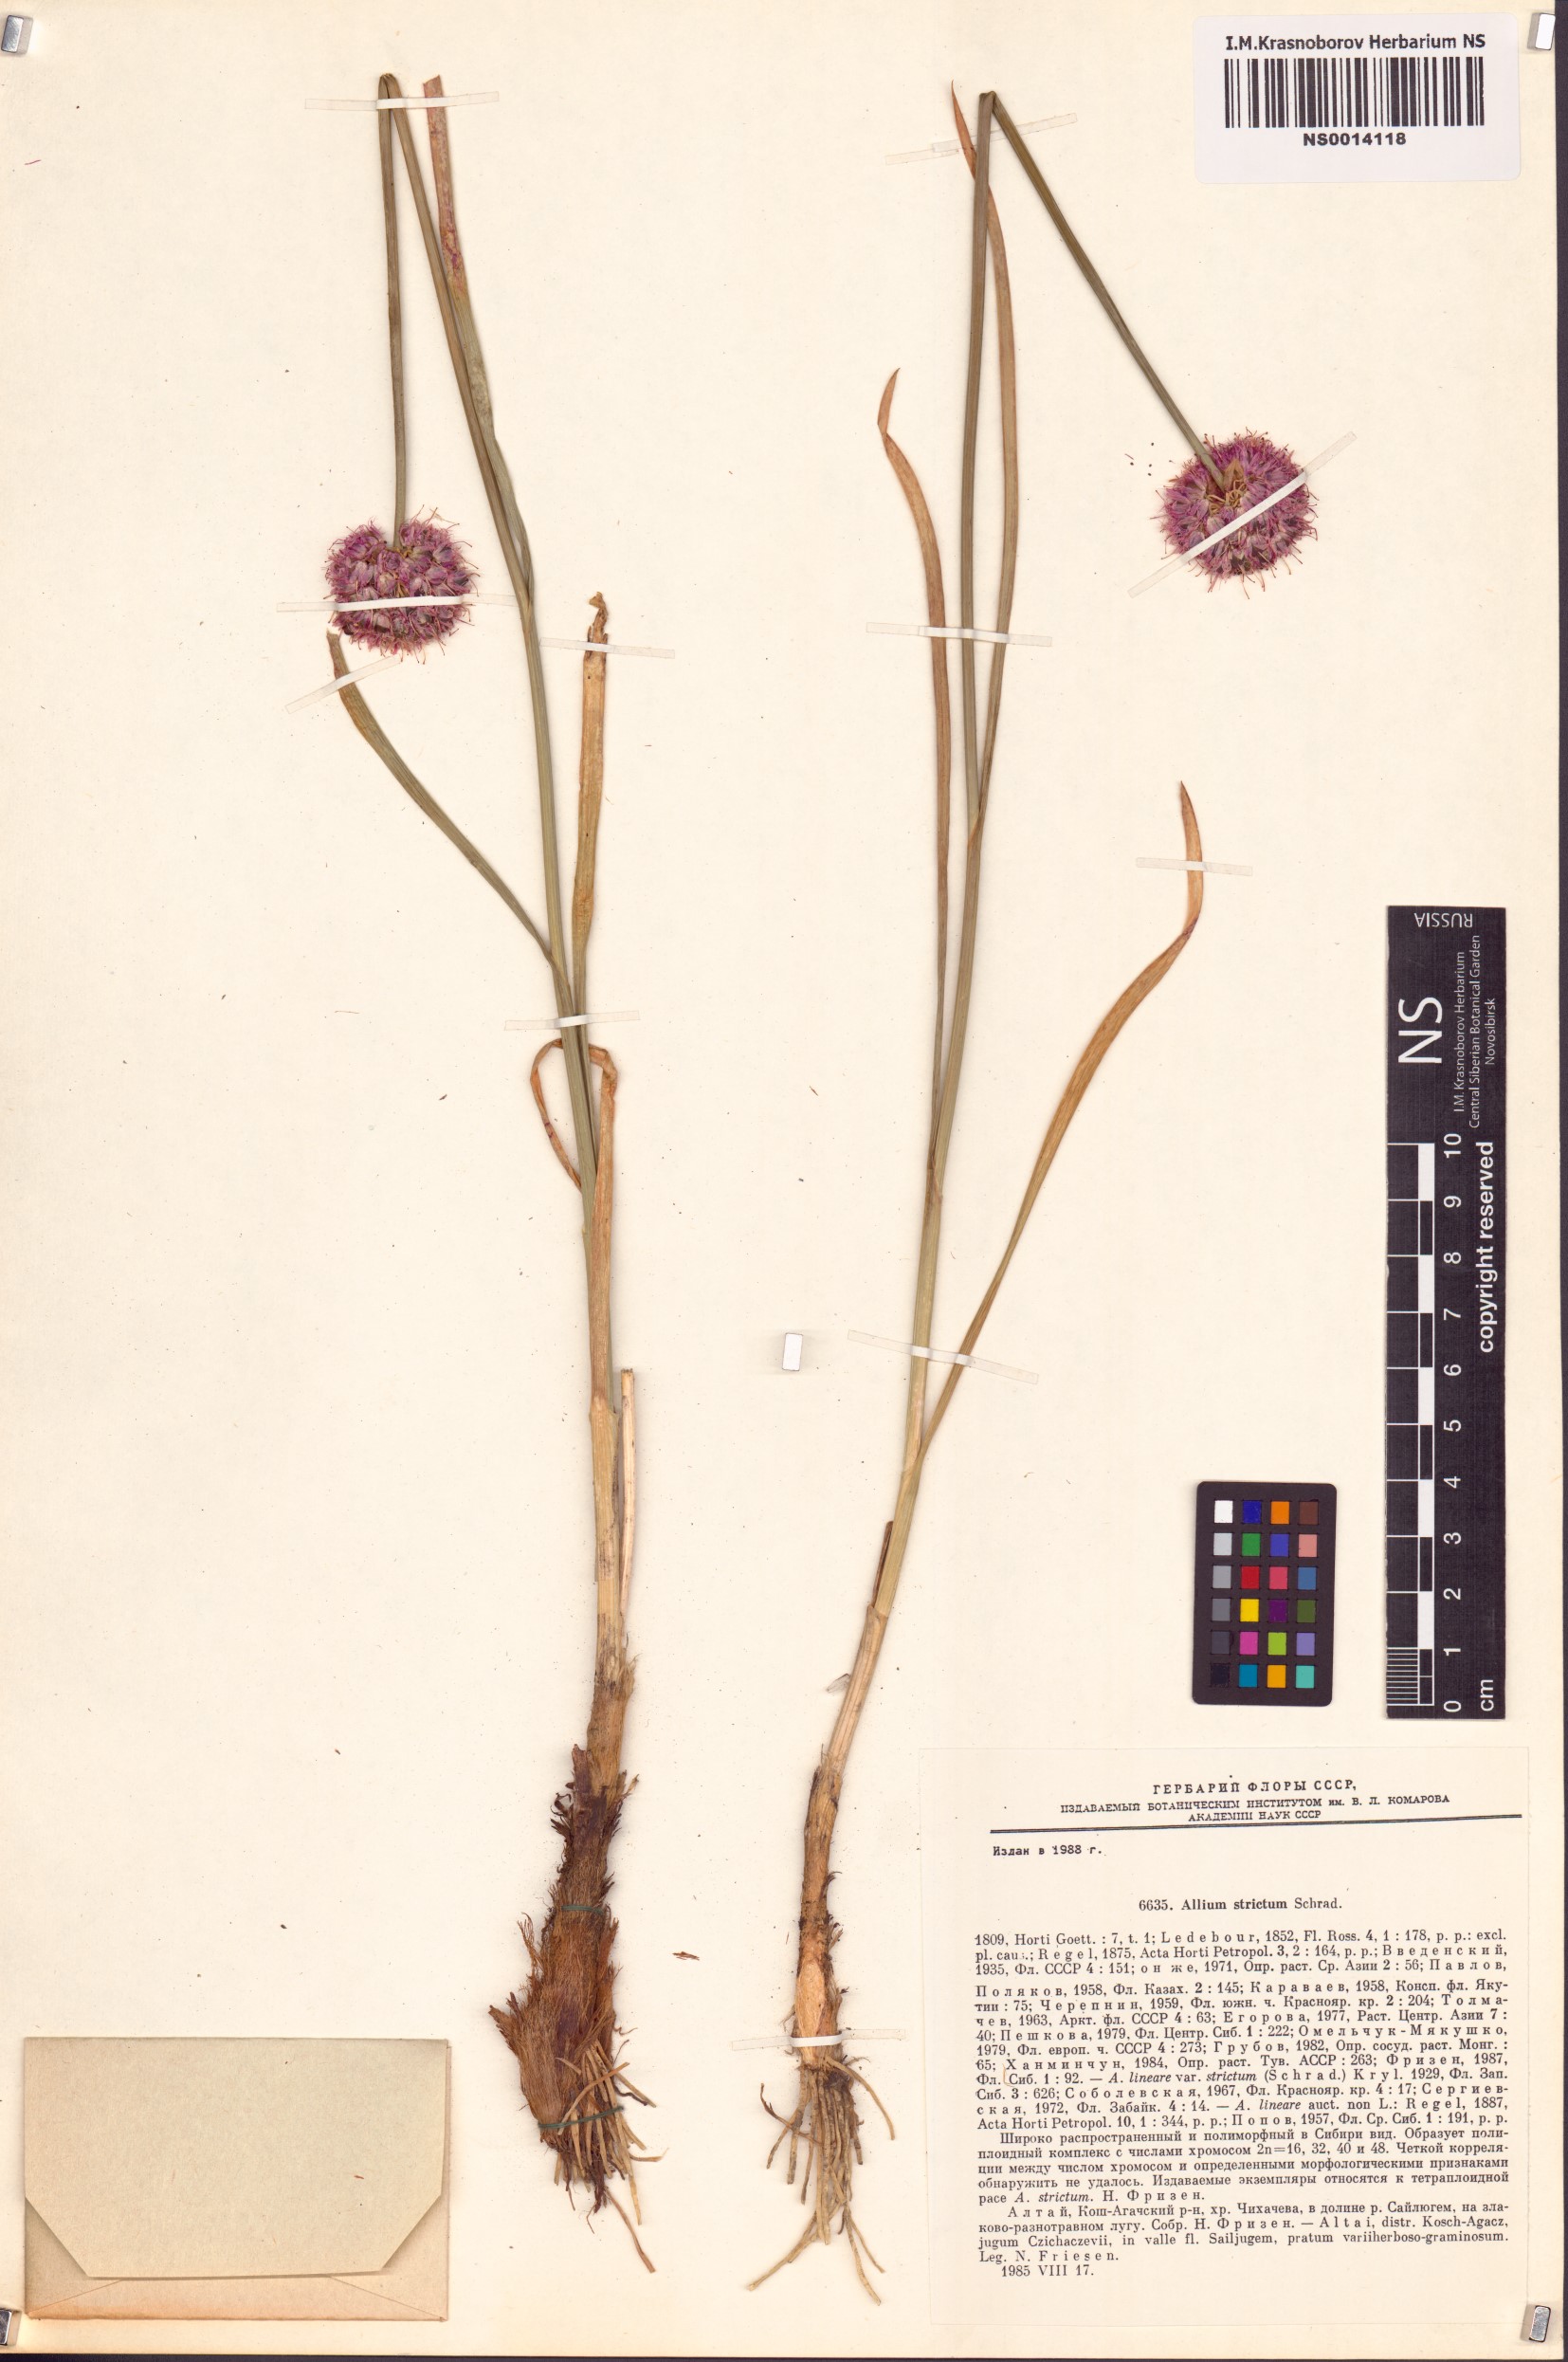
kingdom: Plantae
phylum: Tracheophyta
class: Liliopsida
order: Asparagales
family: Amaryllidaceae
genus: Allium
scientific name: Allium strictum
